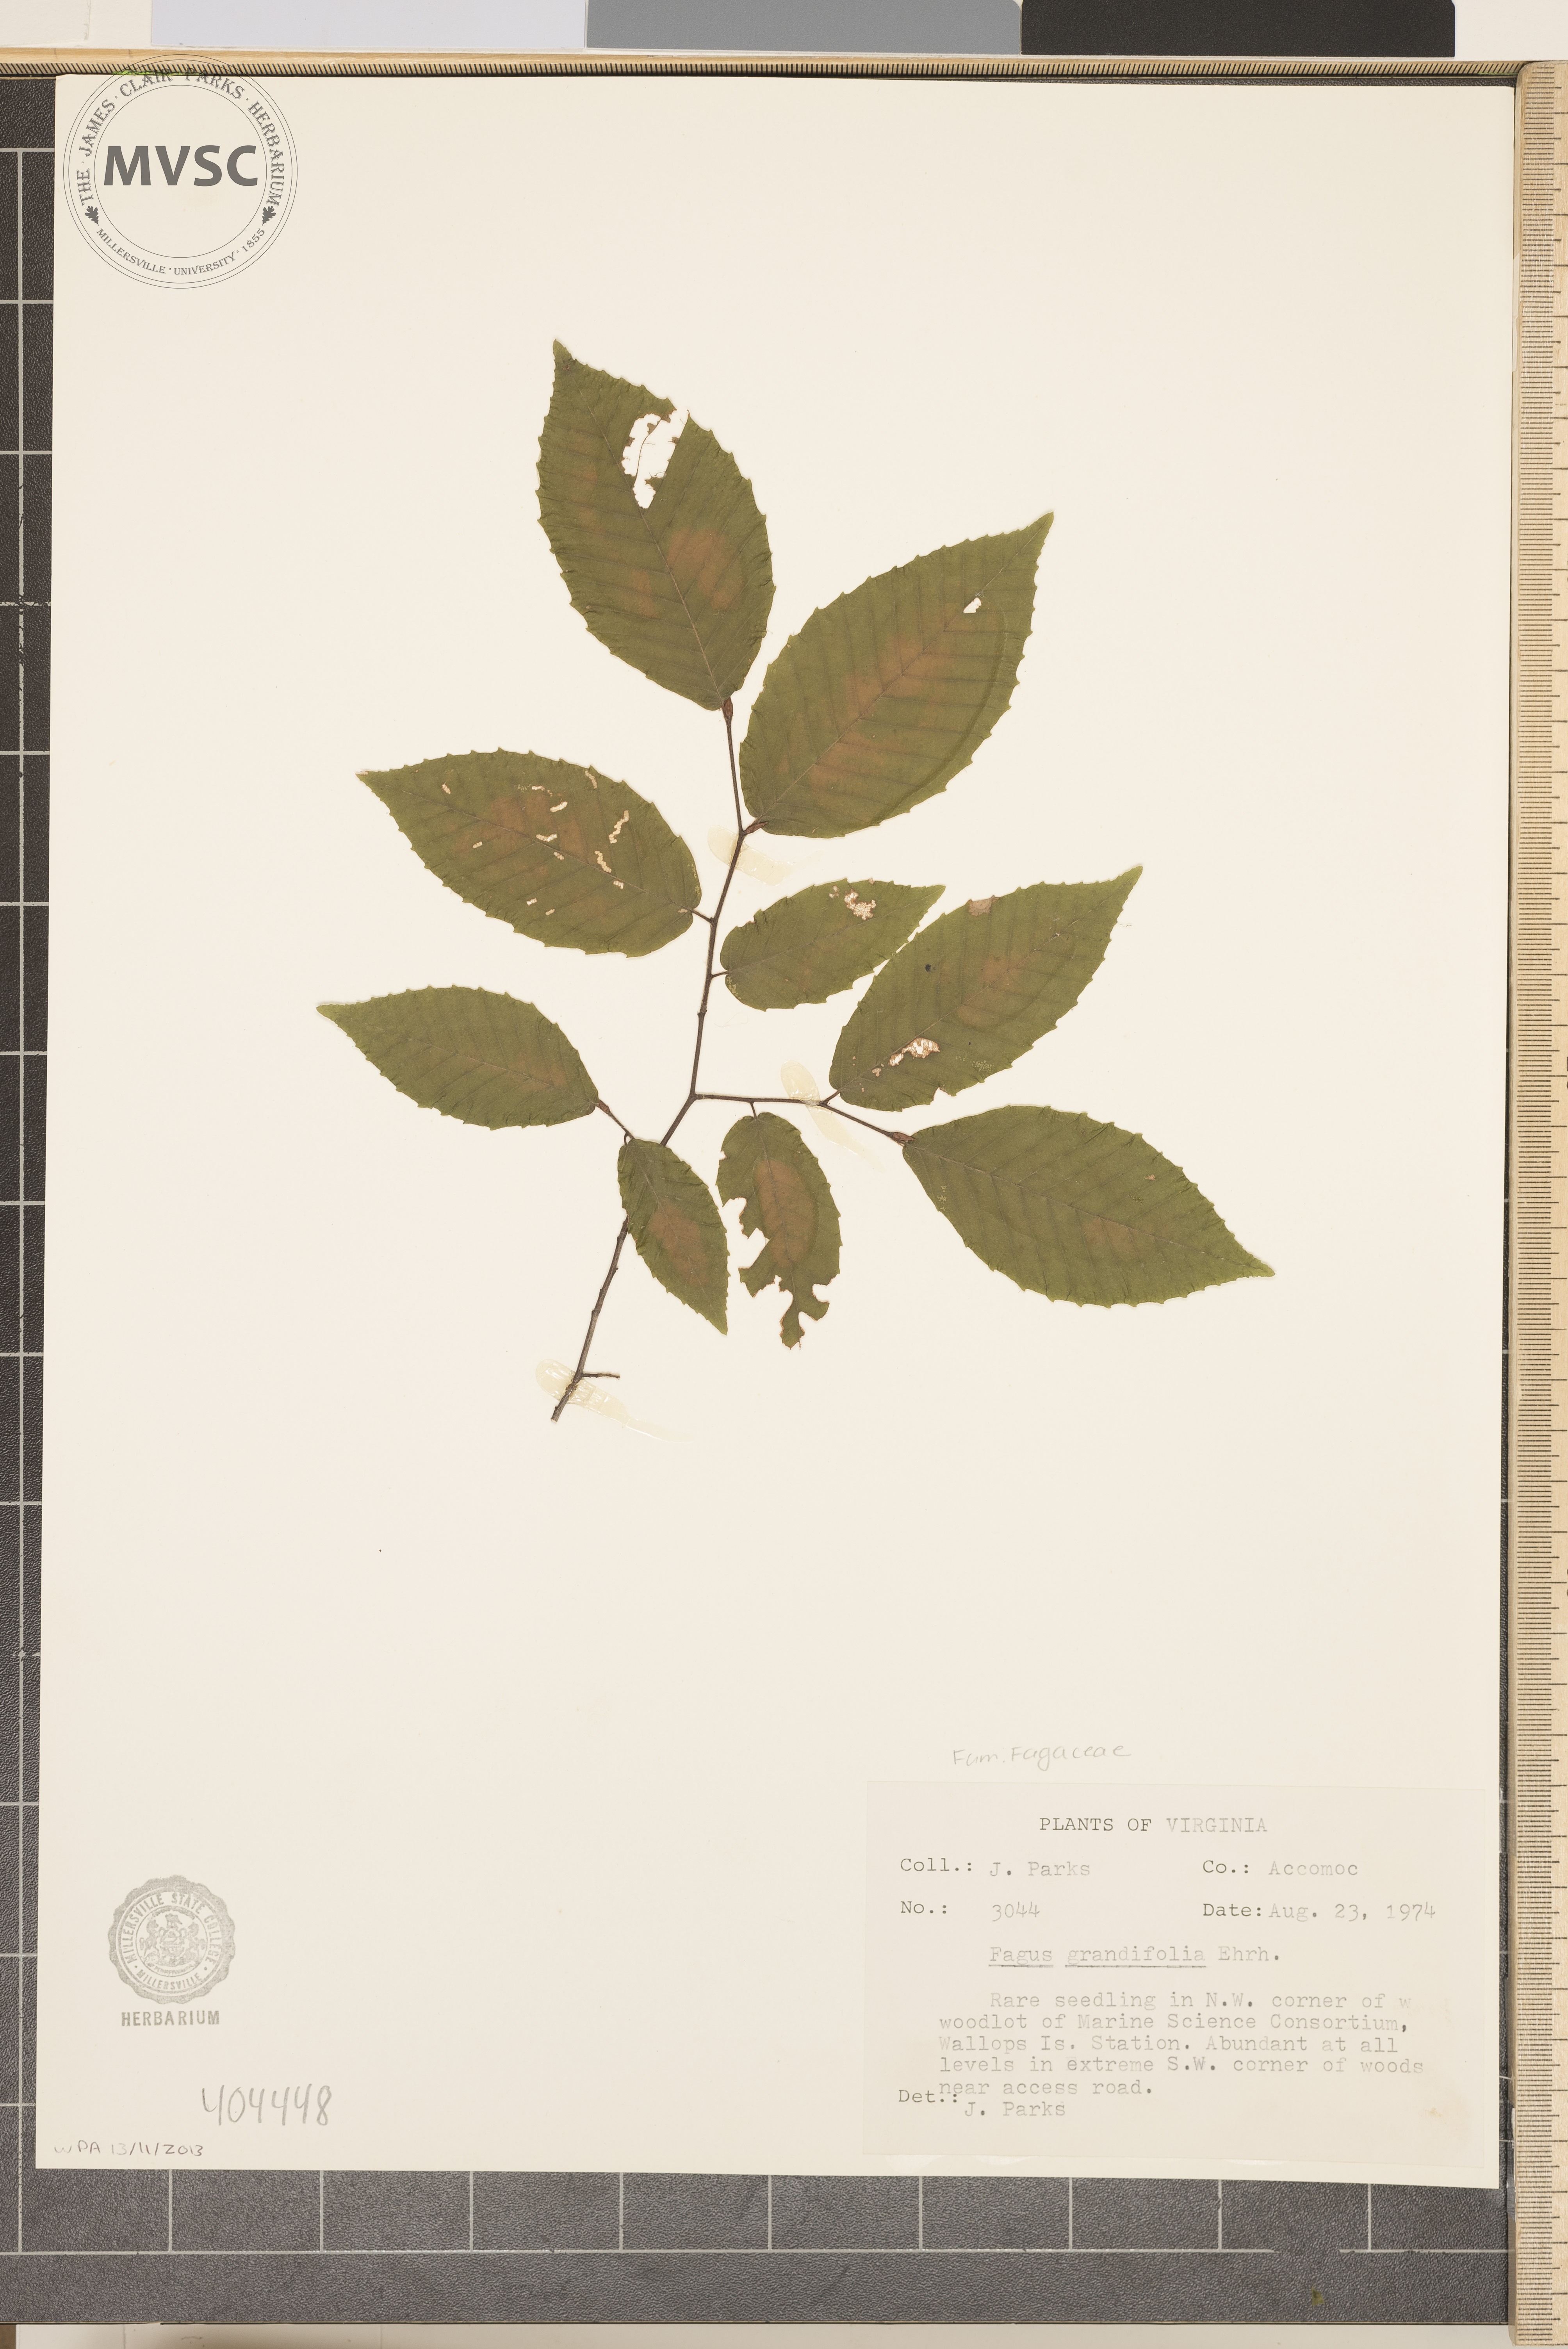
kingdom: Plantae
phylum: Tracheophyta
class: Magnoliopsida
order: Fagales
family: Fagaceae
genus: Fagus
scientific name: Fagus grandifolia
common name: American beech
